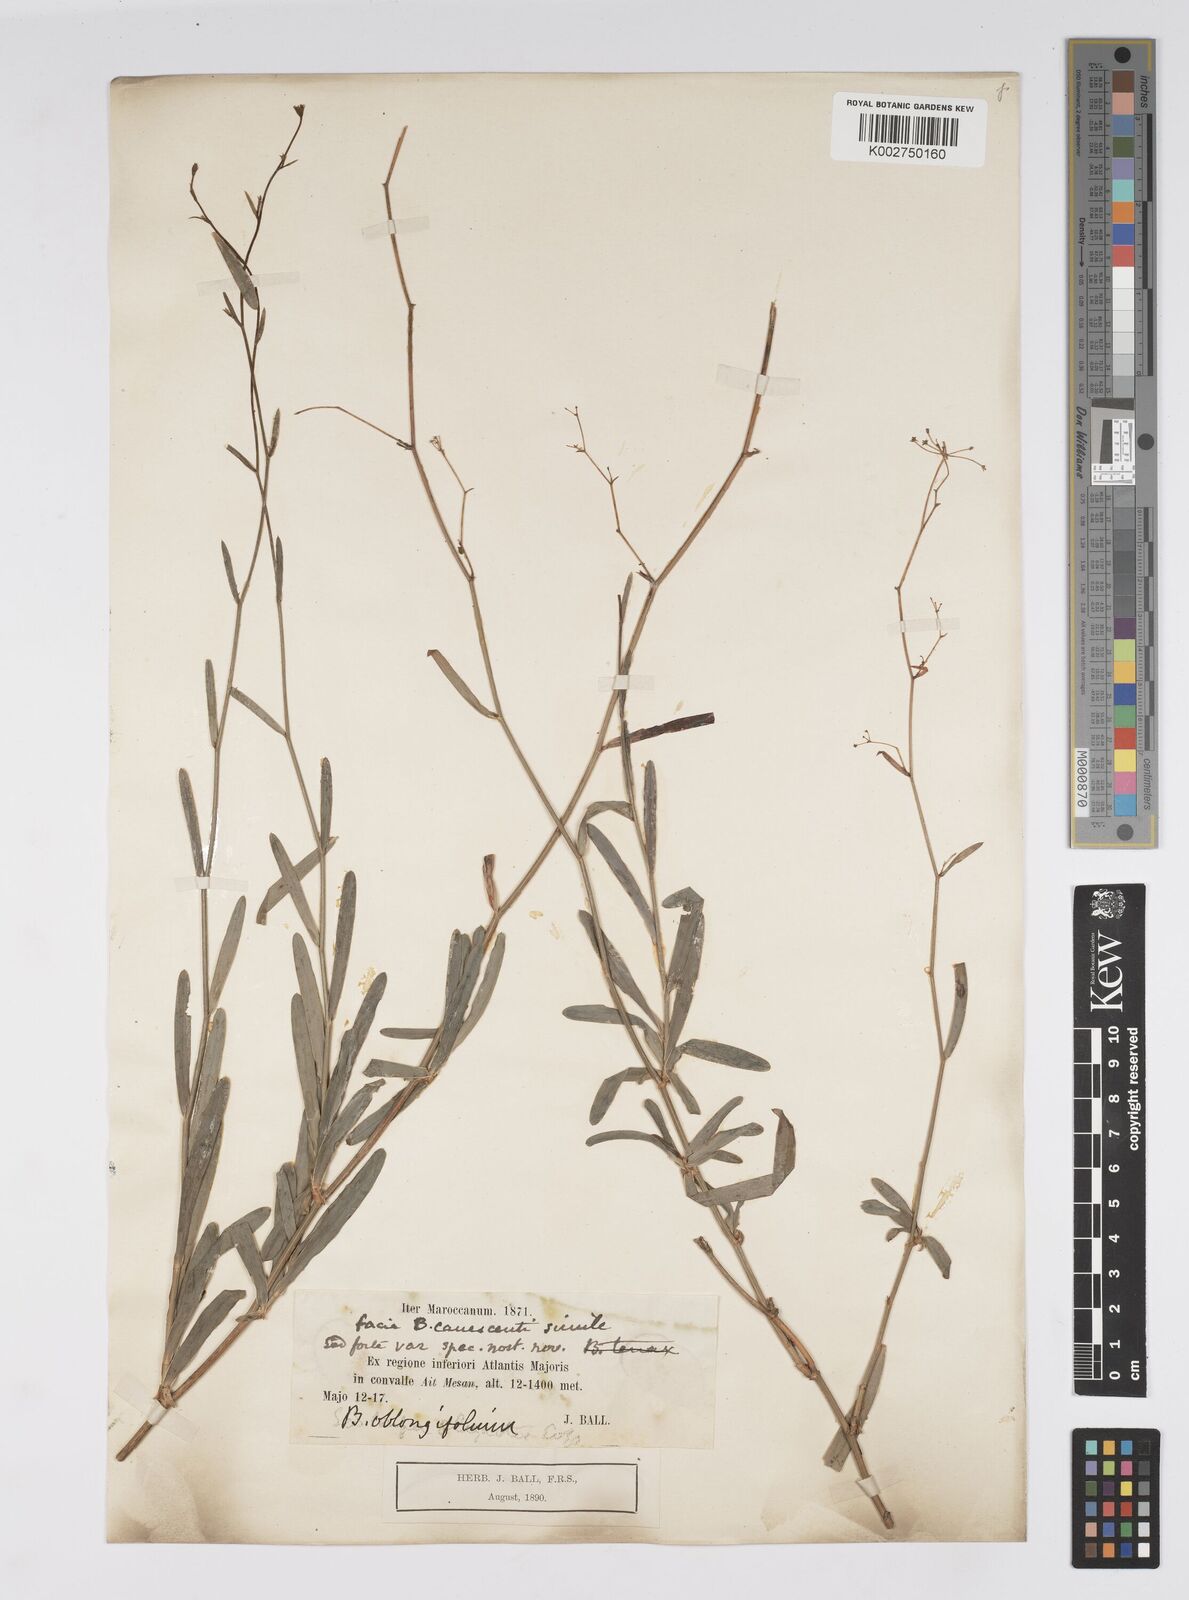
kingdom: Plantae
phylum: Tracheophyta
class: Magnoliopsida
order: Apiales
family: Apiaceae
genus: Bupleurum
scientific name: Bupleurum montanum
